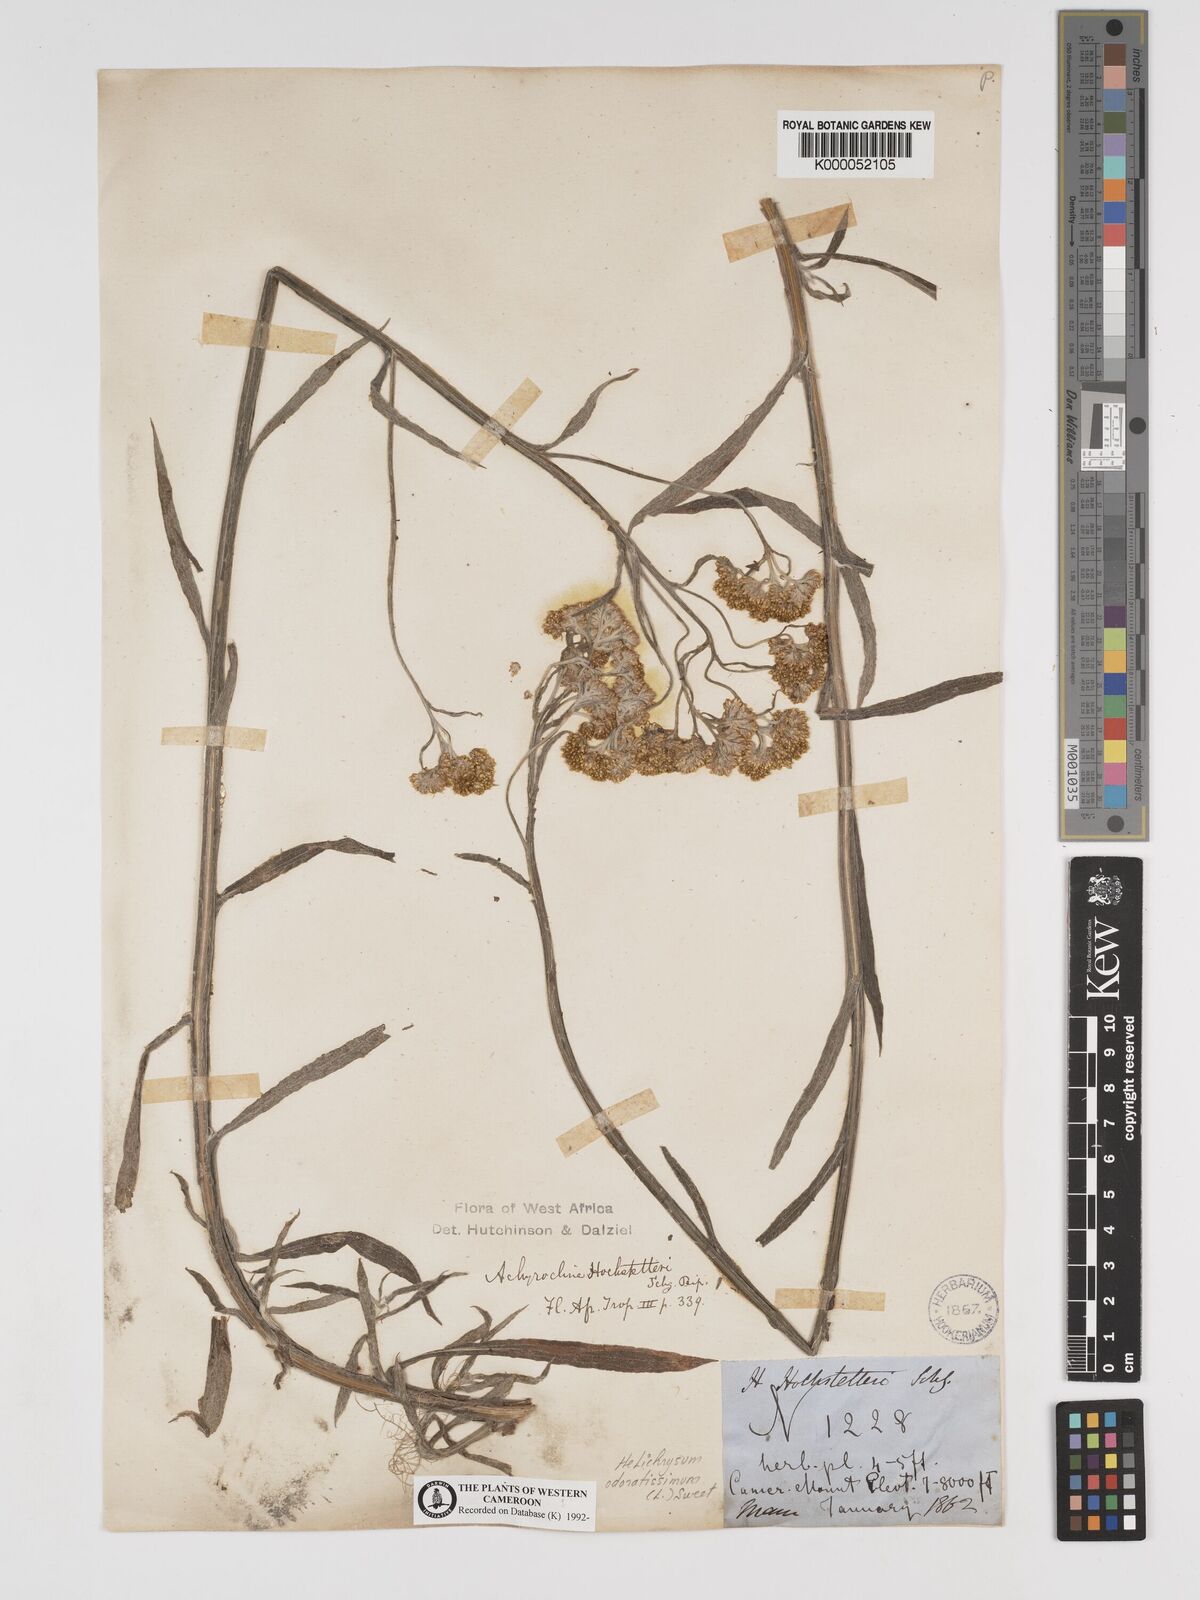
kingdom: Plantae
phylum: Tracheophyta
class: Magnoliopsida
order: Asterales
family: Asteraceae
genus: Helichrysum
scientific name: Helichrysum odoratissimum
